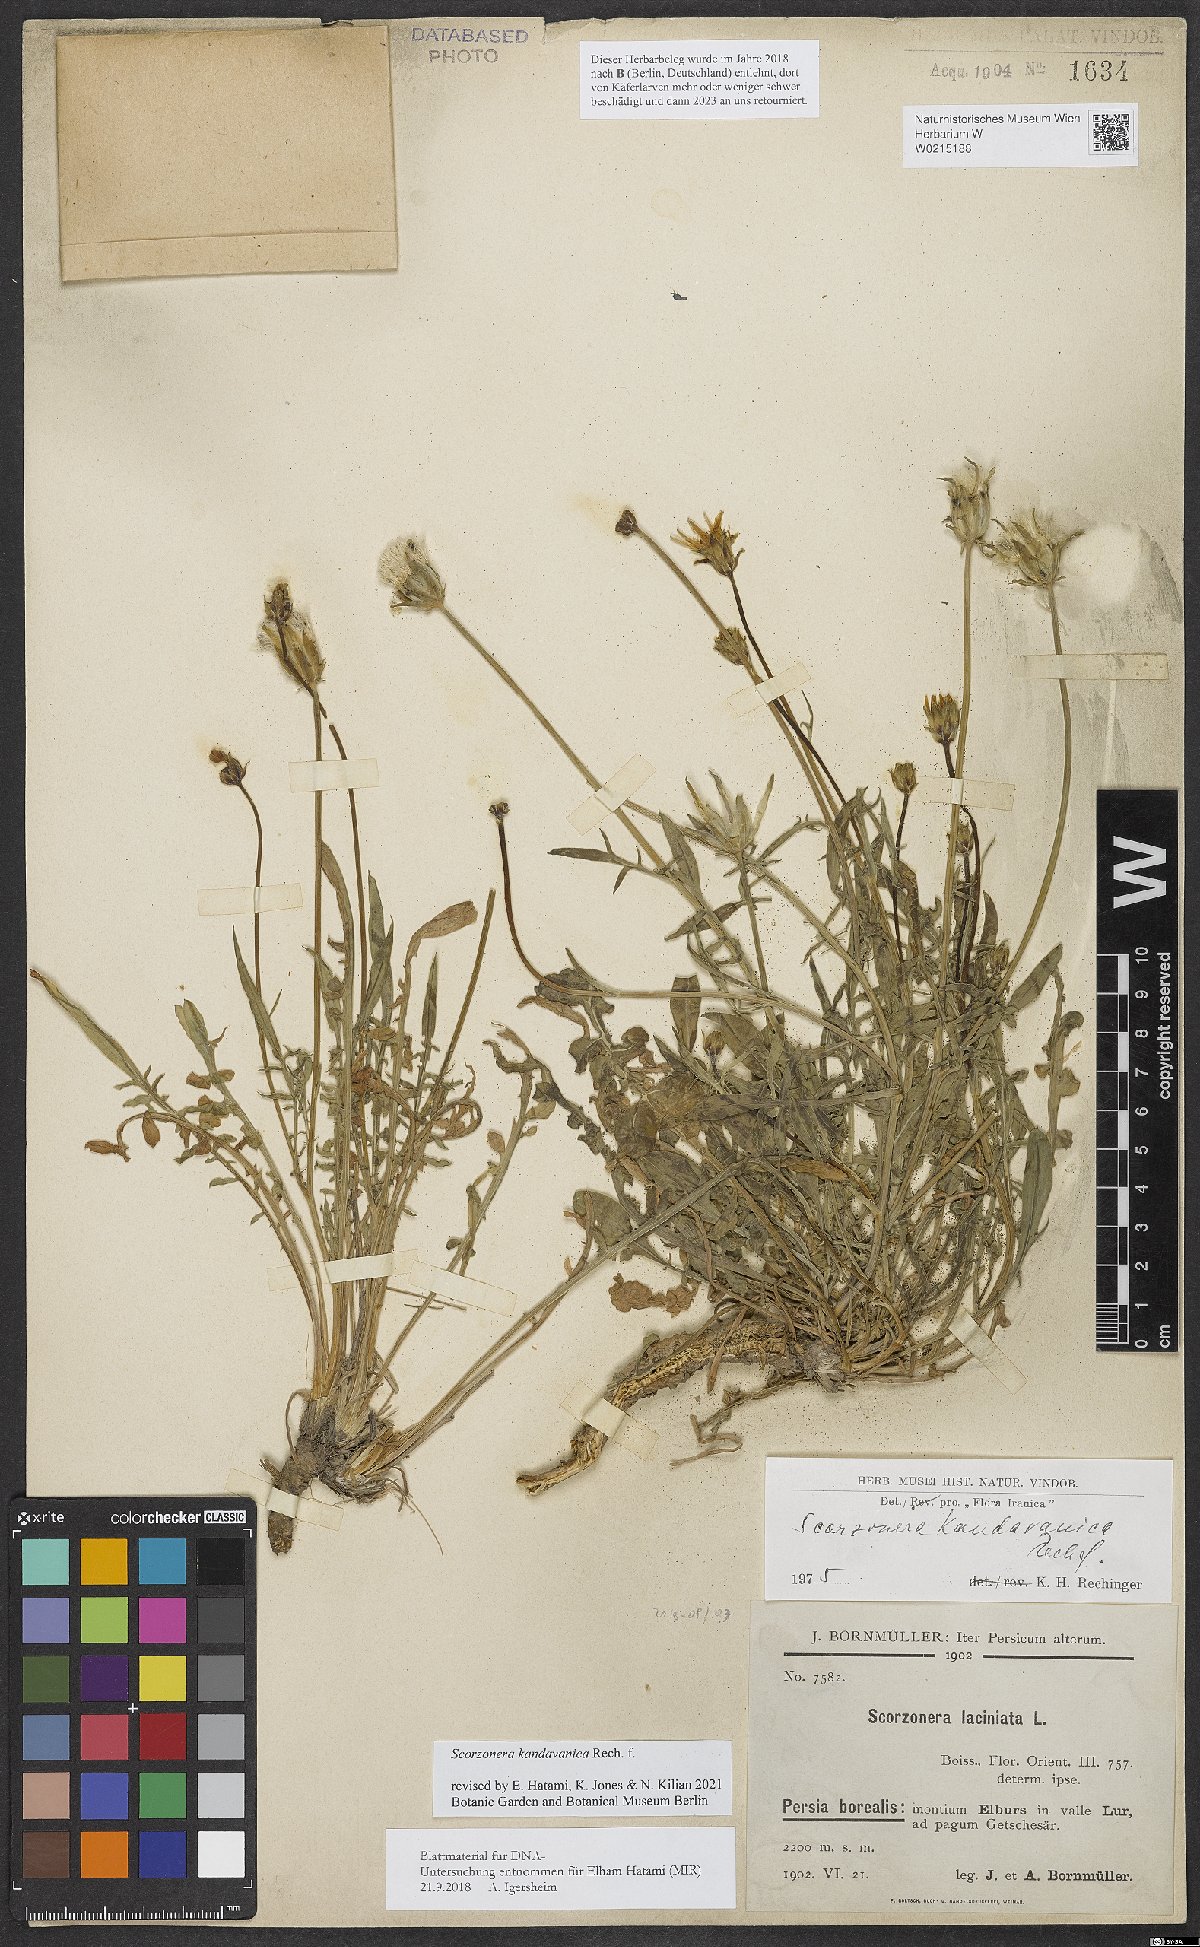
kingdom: Plantae
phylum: Tracheophyta
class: Magnoliopsida
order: Asterales
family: Asteraceae
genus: Scorzonera
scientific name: Scorzonera kandavanica
